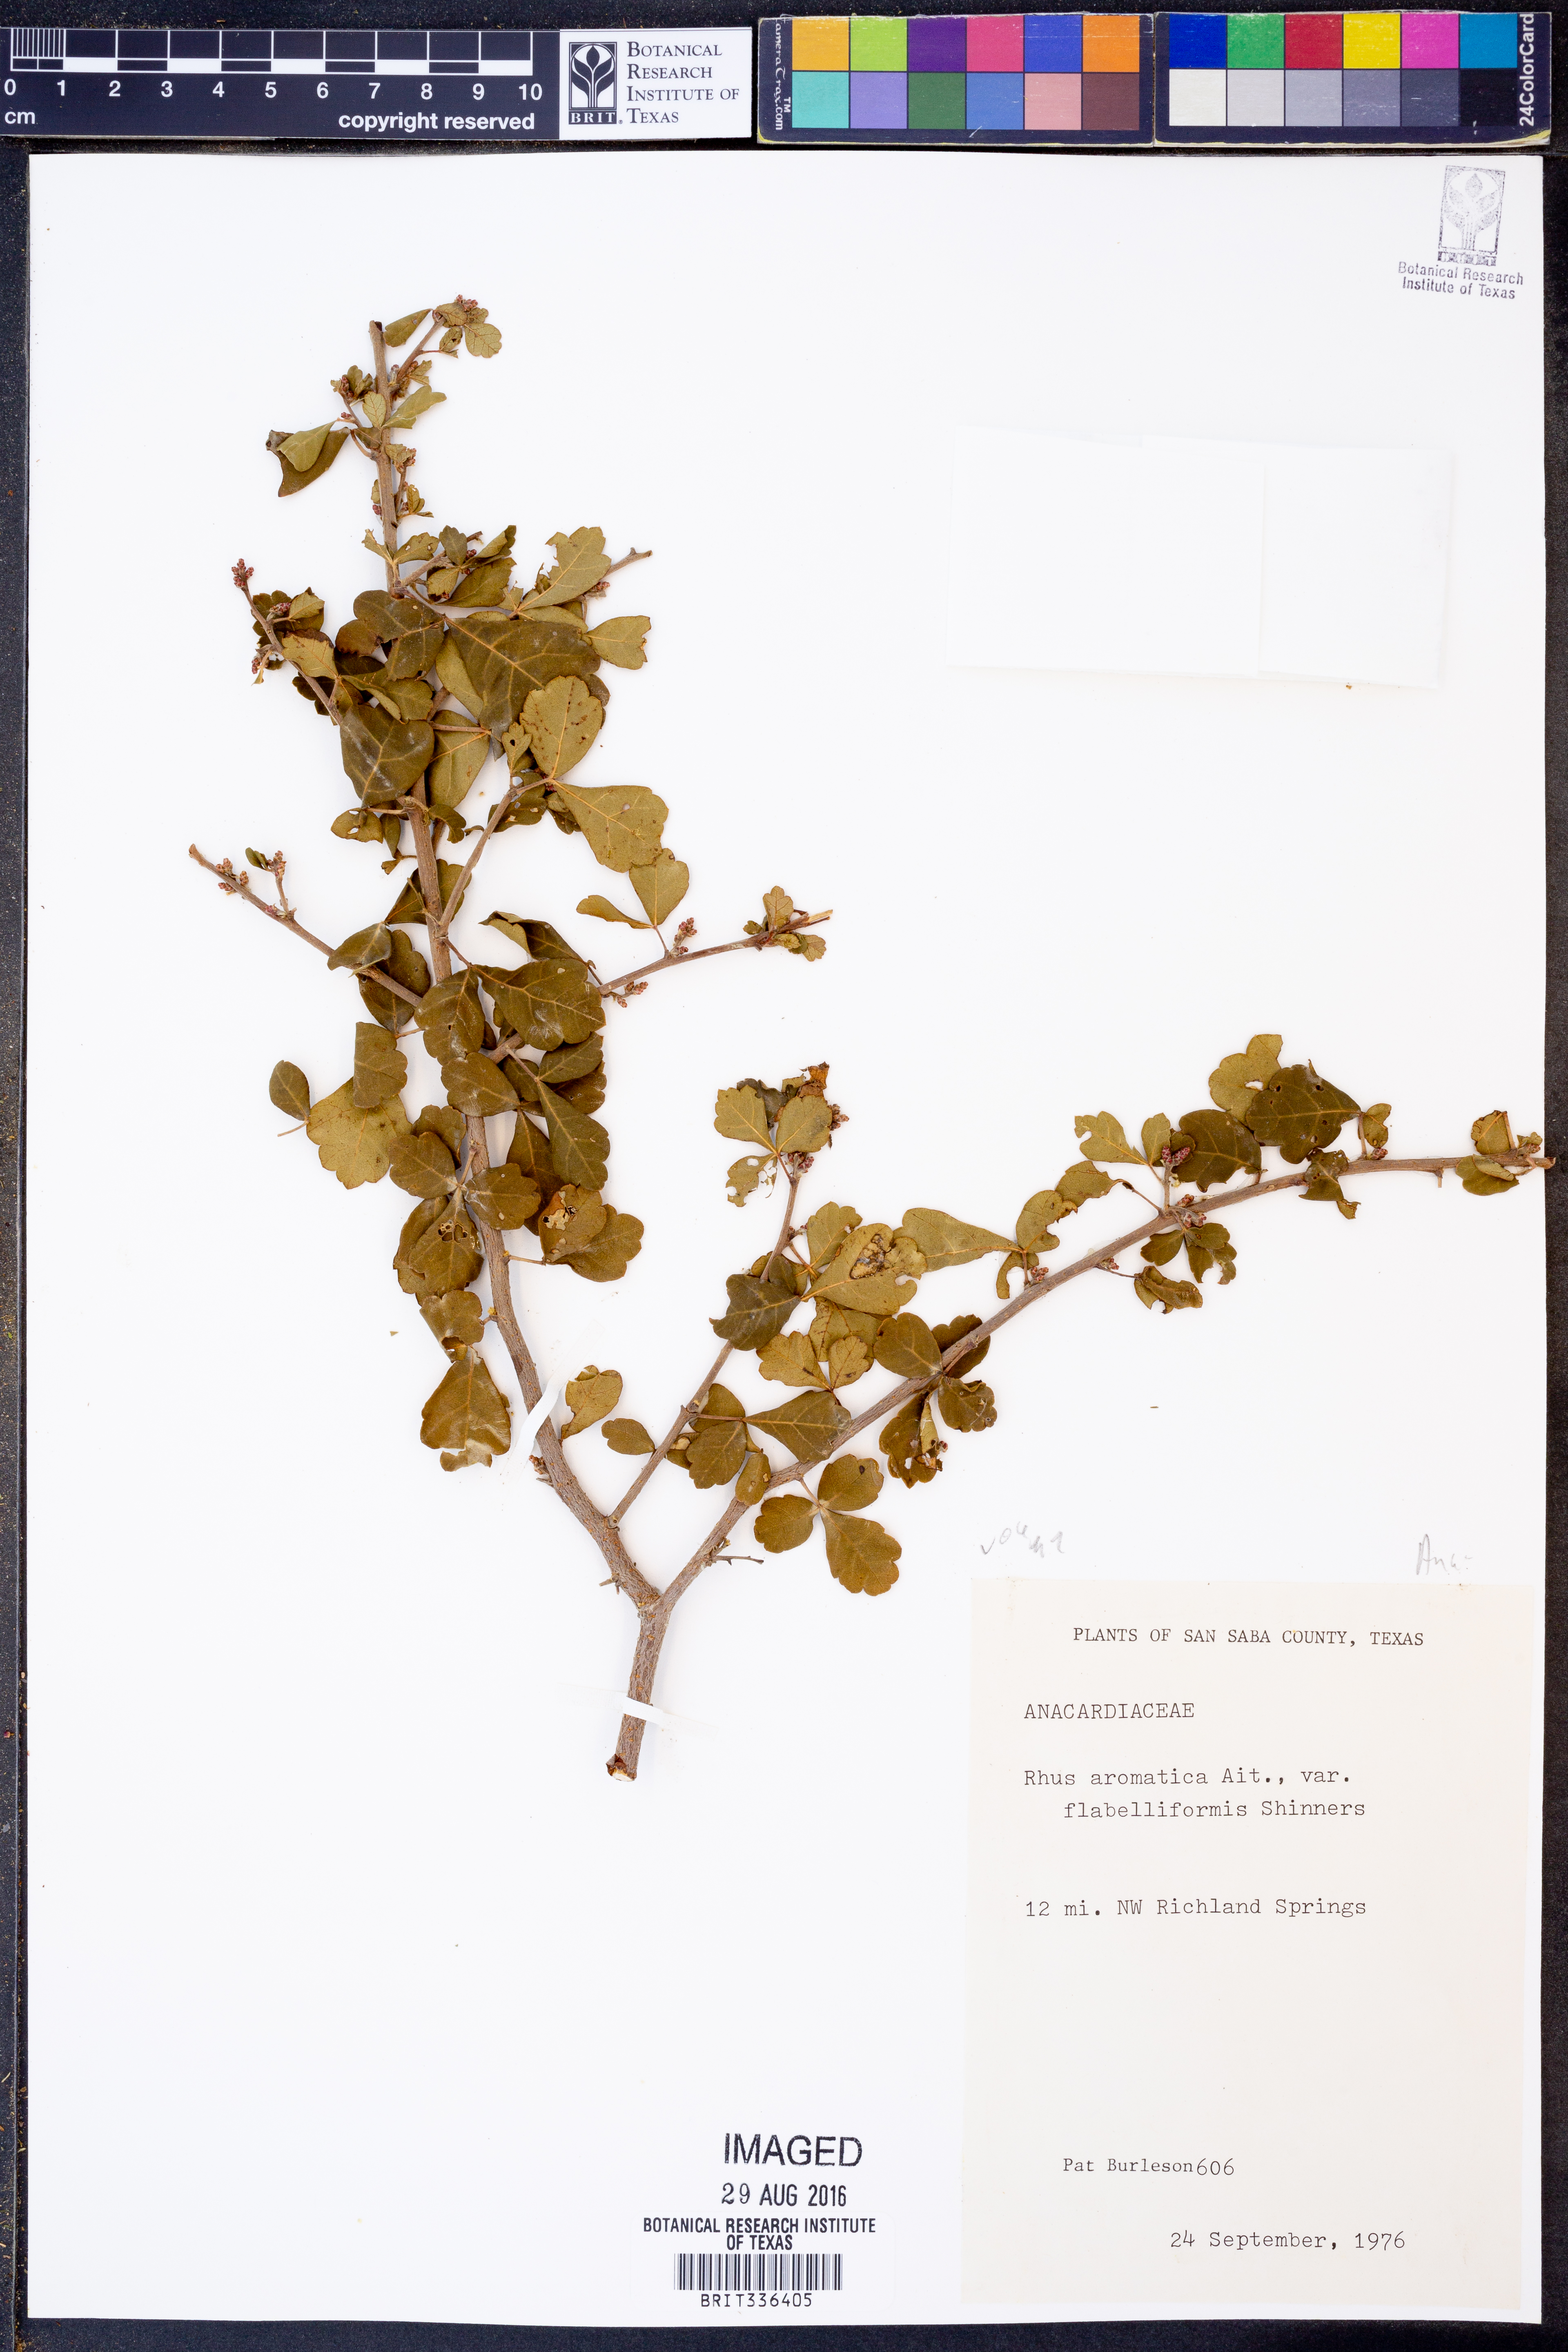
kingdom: Plantae
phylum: Tracheophyta
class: Magnoliopsida
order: Sapindales
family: Anacardiaceae
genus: Rhus
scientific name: Rhus trilobata
